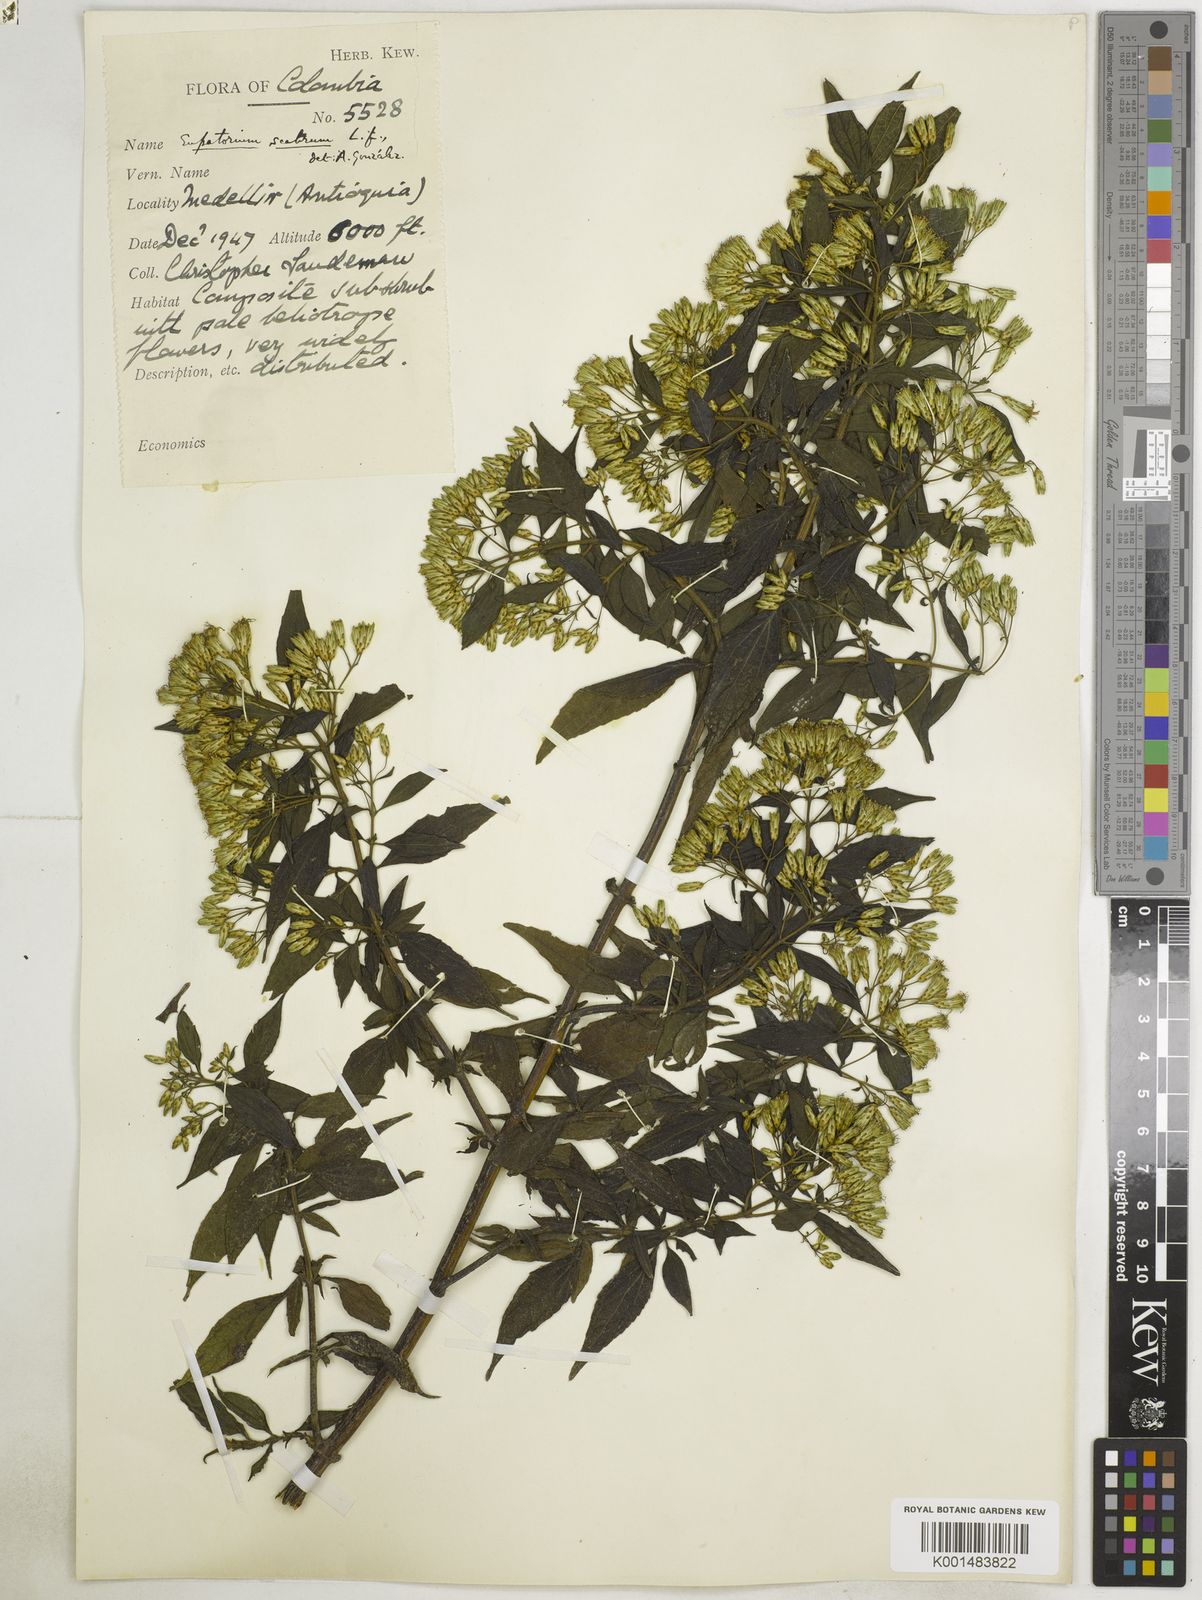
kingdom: Plantae
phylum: Tracheophyta
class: Magnoliopsida
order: Asterales
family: Asteraceae
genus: Chromolaena
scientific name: Chromolaena scabra
